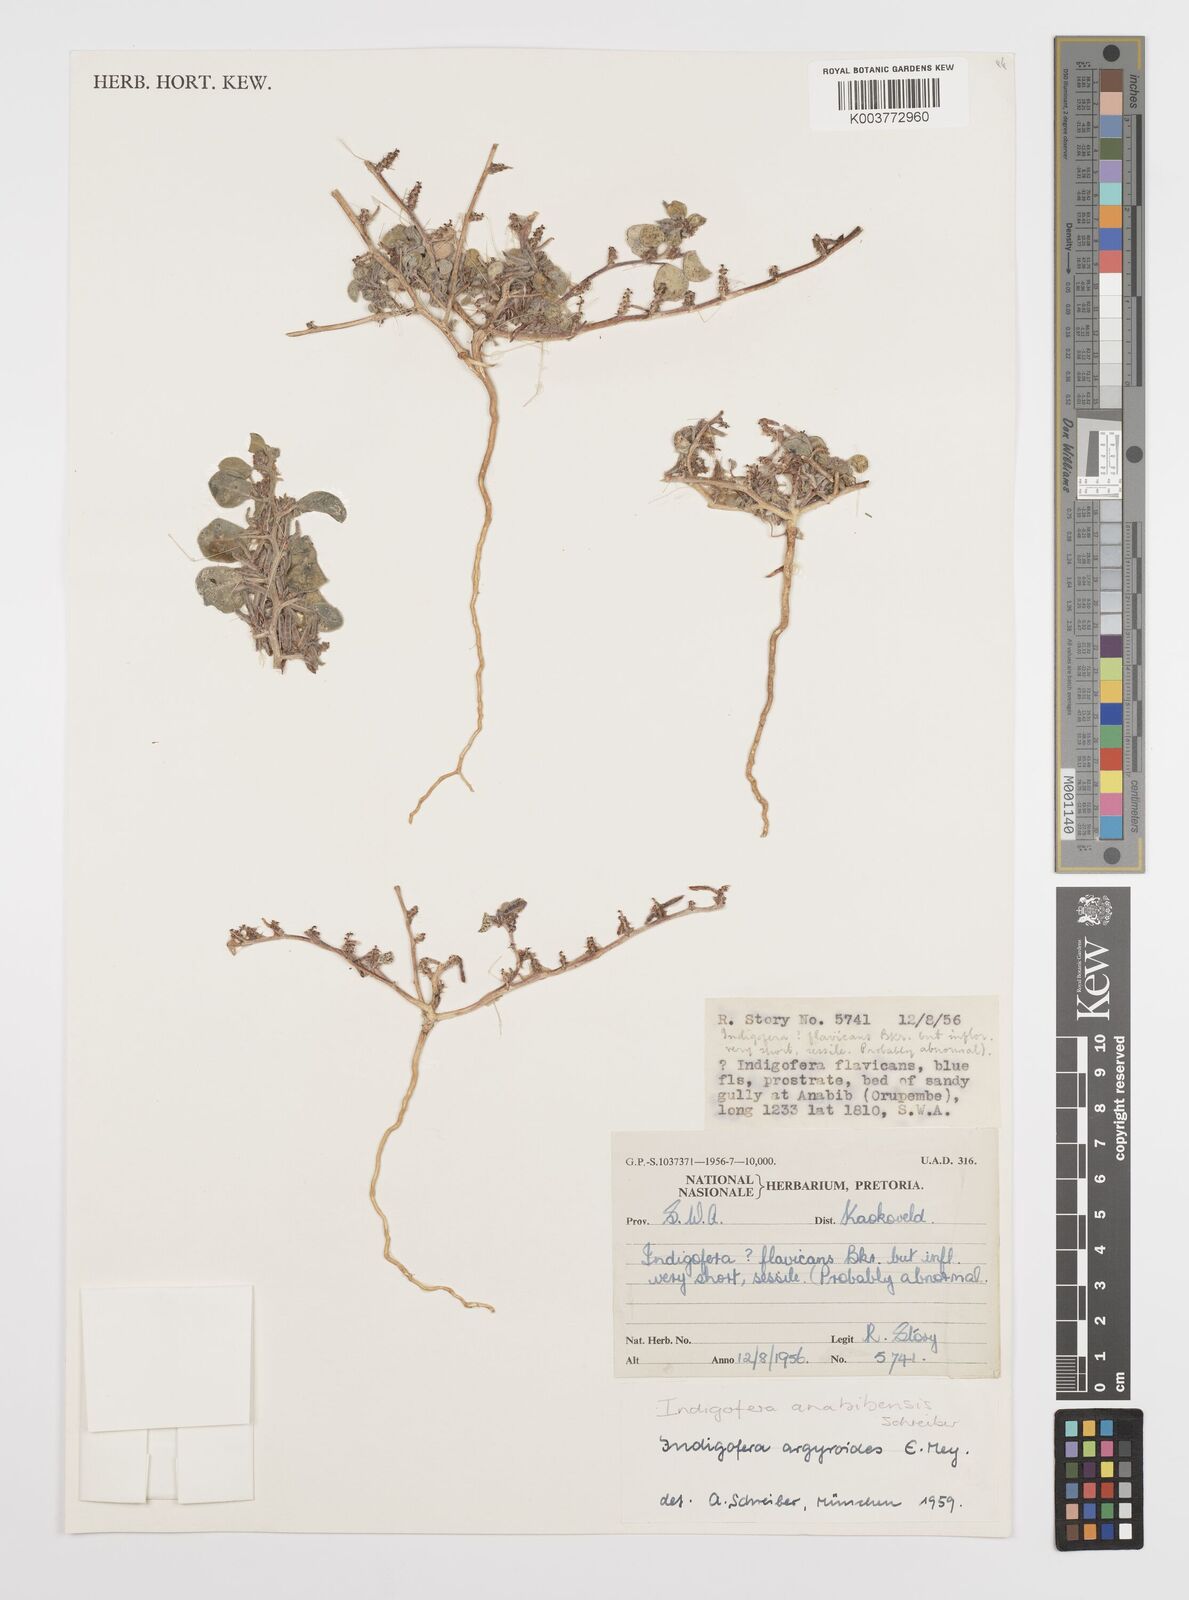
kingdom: Plantae
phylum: Tracheophyta
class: Magnoliopsida
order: Fabales
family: Fabaceae
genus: Indigofera
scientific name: Indigofera anabibensis
